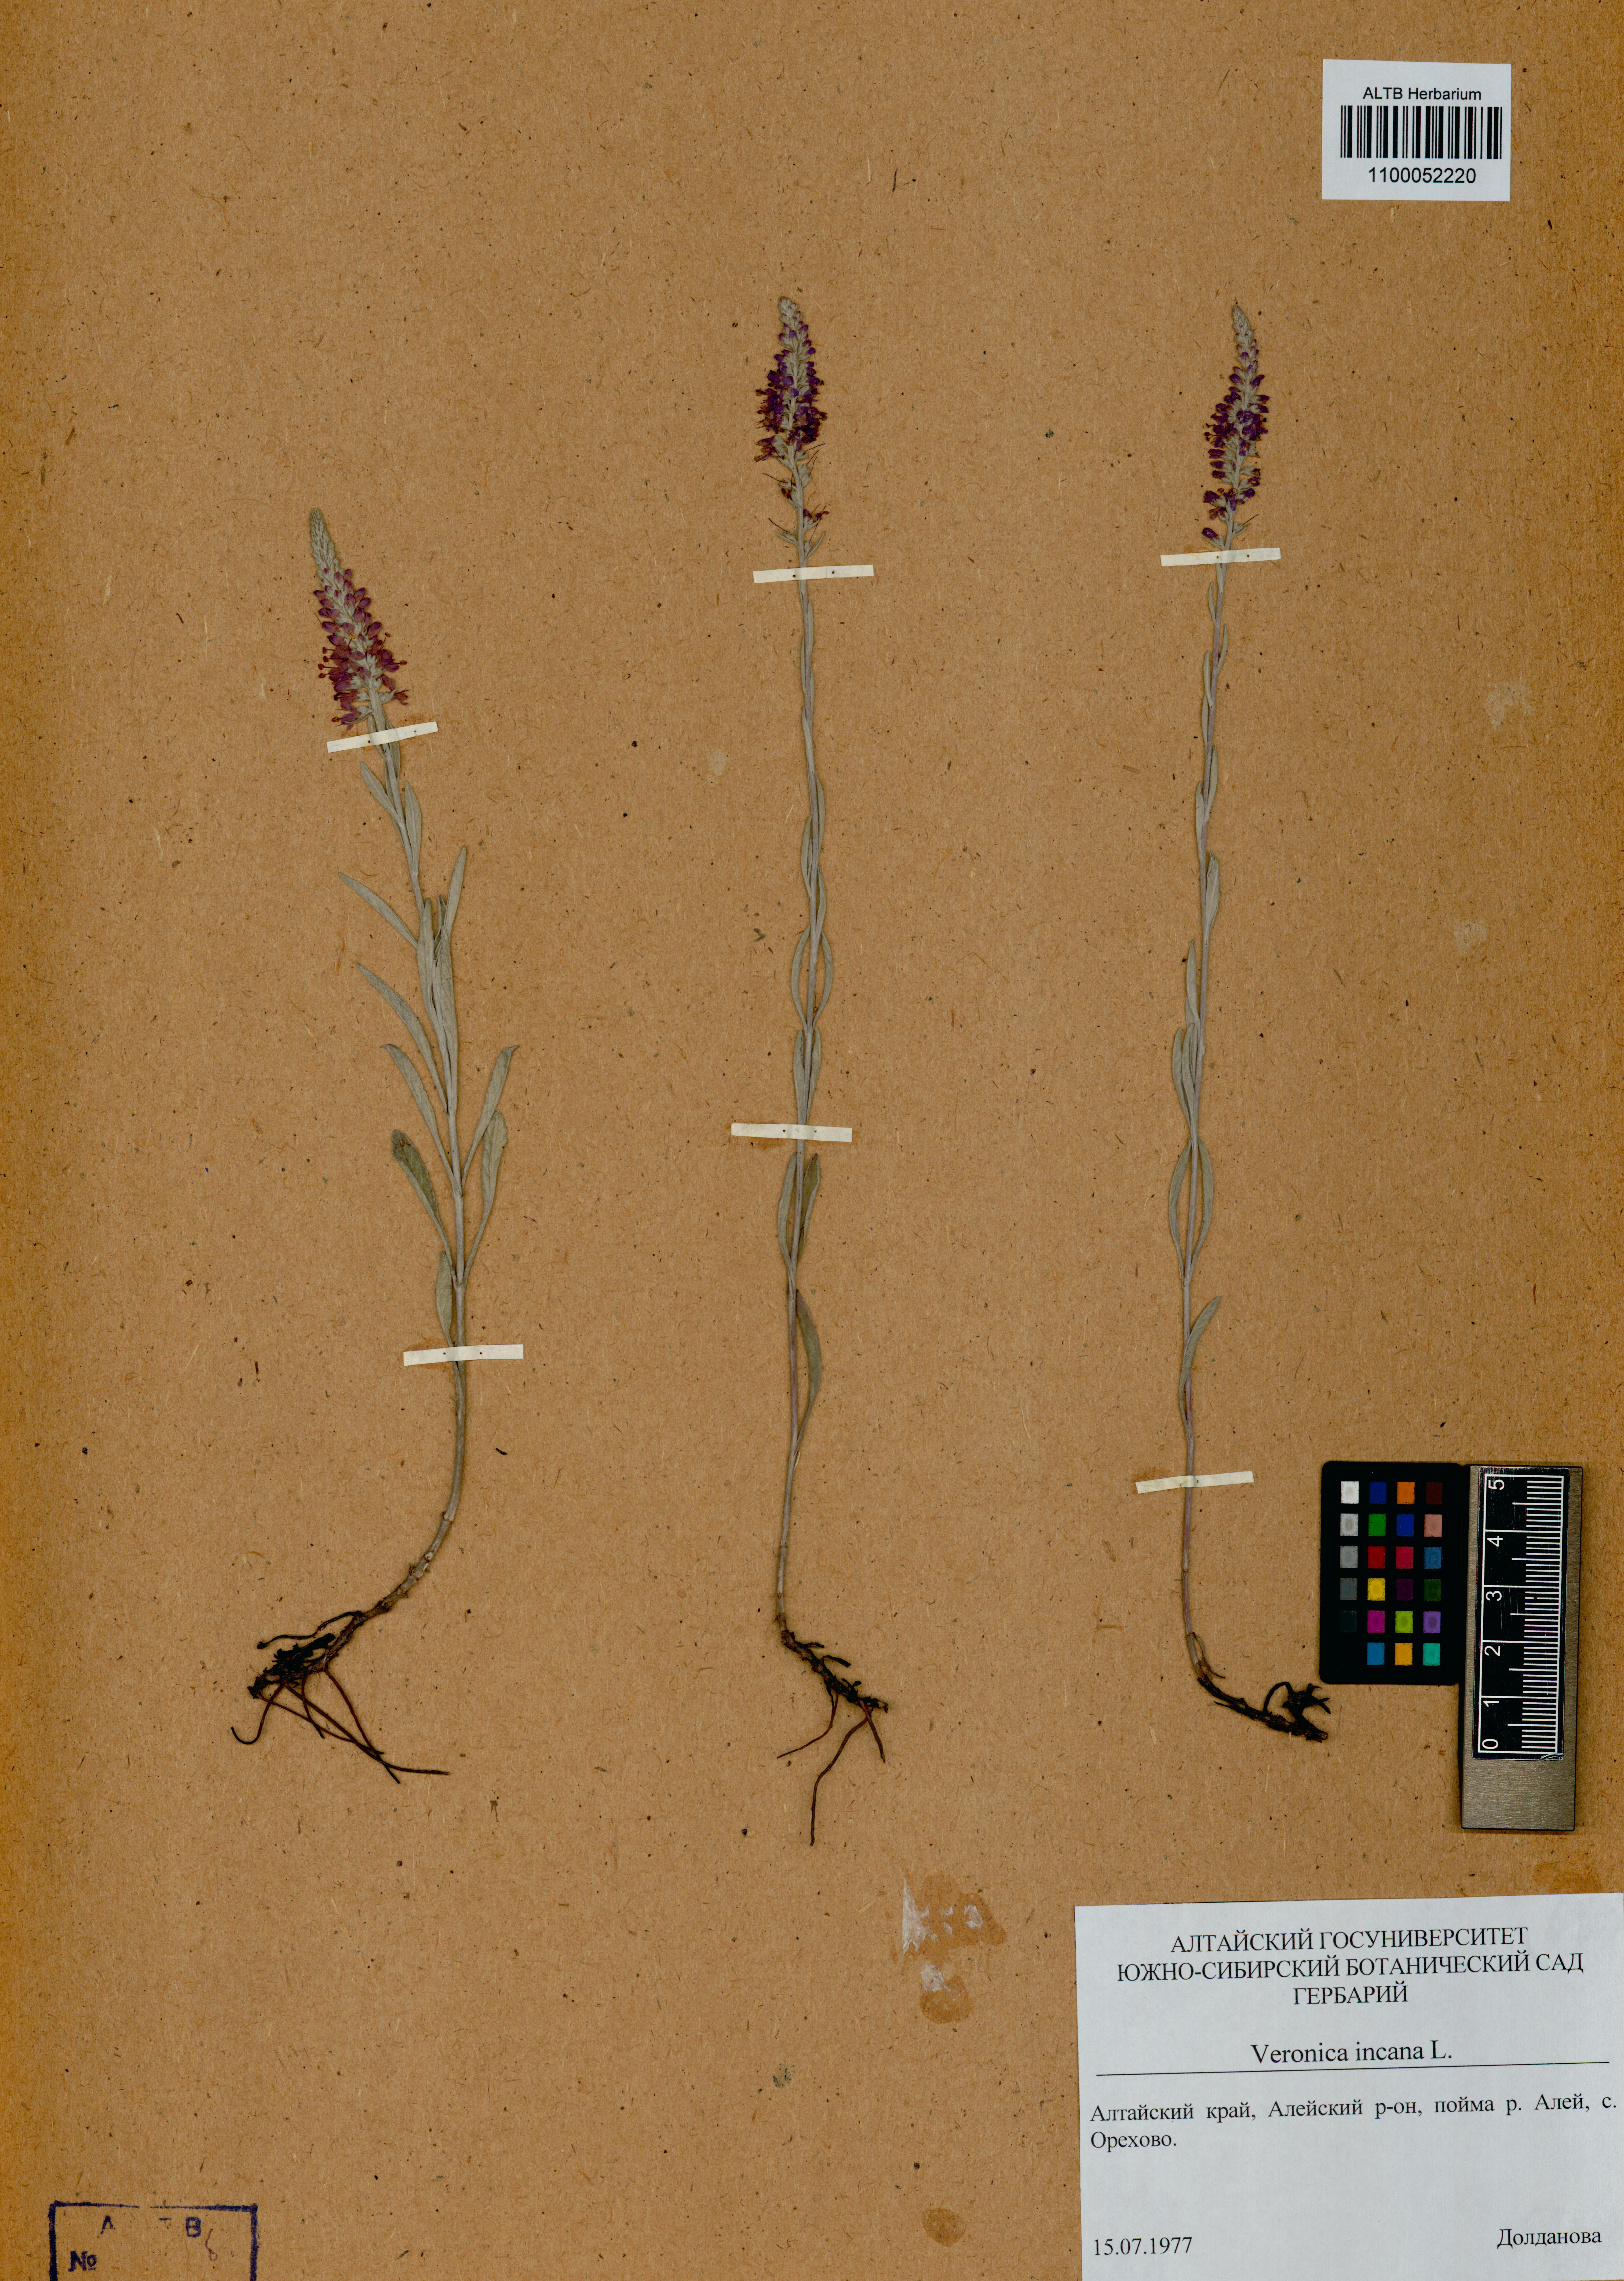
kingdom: Plantae
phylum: Tracheophyta
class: Magnoliopsida
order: Lamiales
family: Plantaginaceae
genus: Veronica
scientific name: Veronica incana
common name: Silver speedwell
